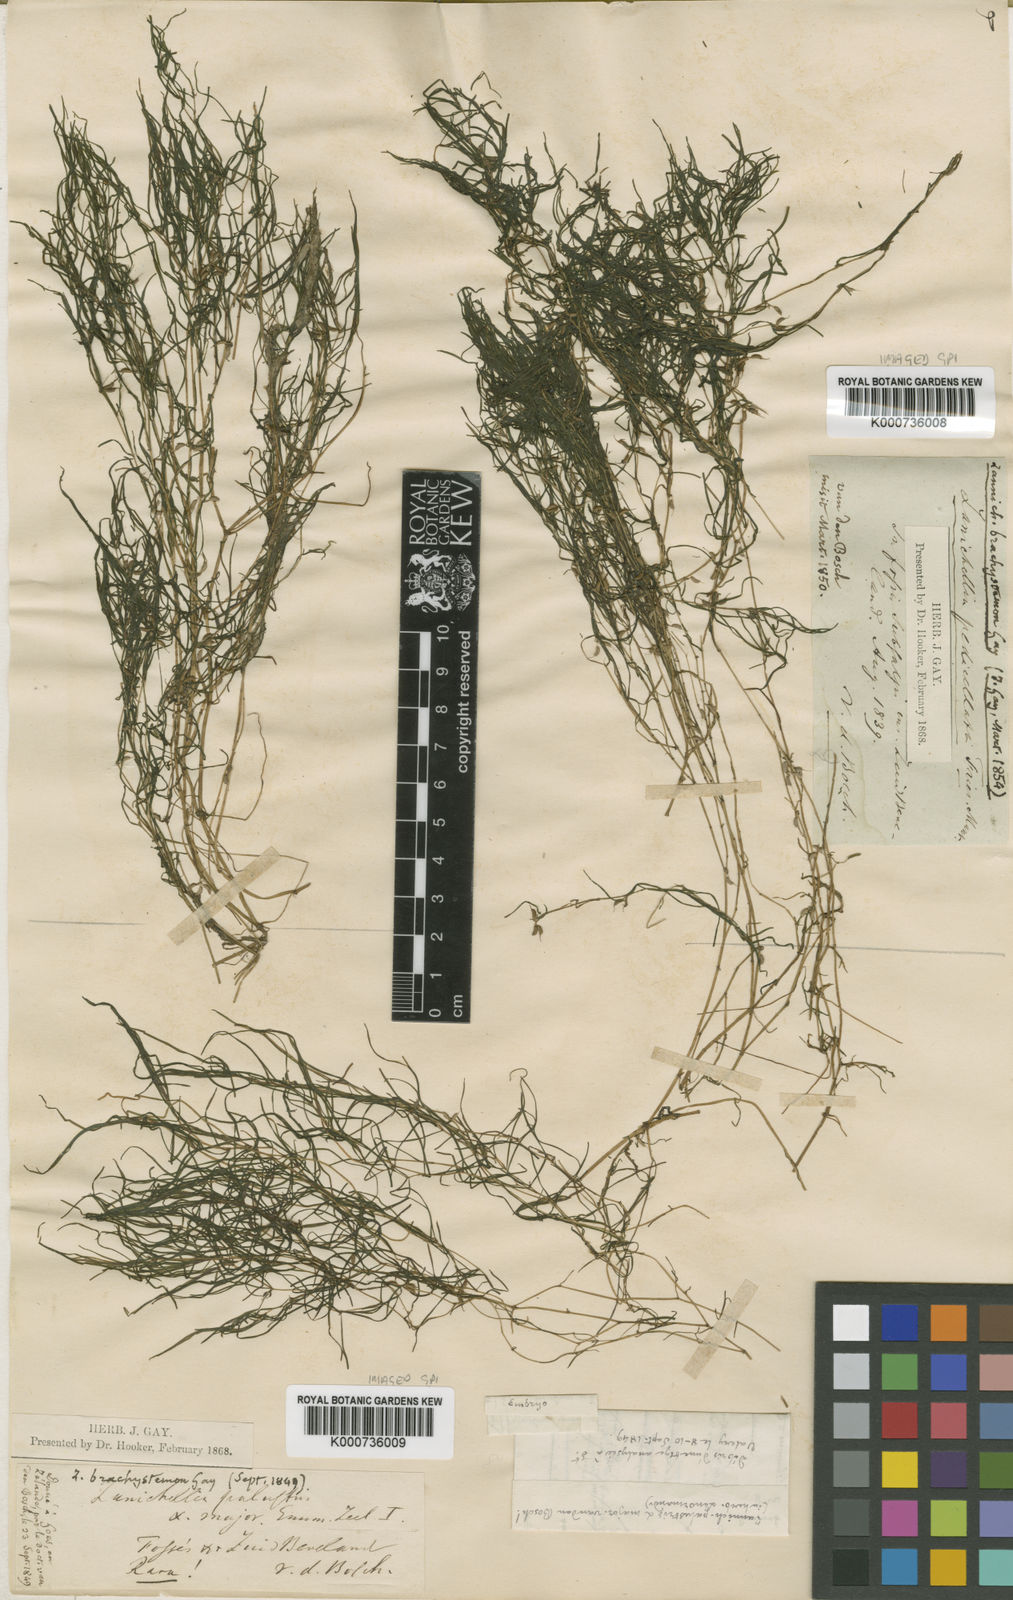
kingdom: Plantae
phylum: Tracheophyta
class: Liliopsida
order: Alismatales
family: Potamogetonaceae
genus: Zannichellia
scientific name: Zannichellia palustris
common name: Horned pondweed
